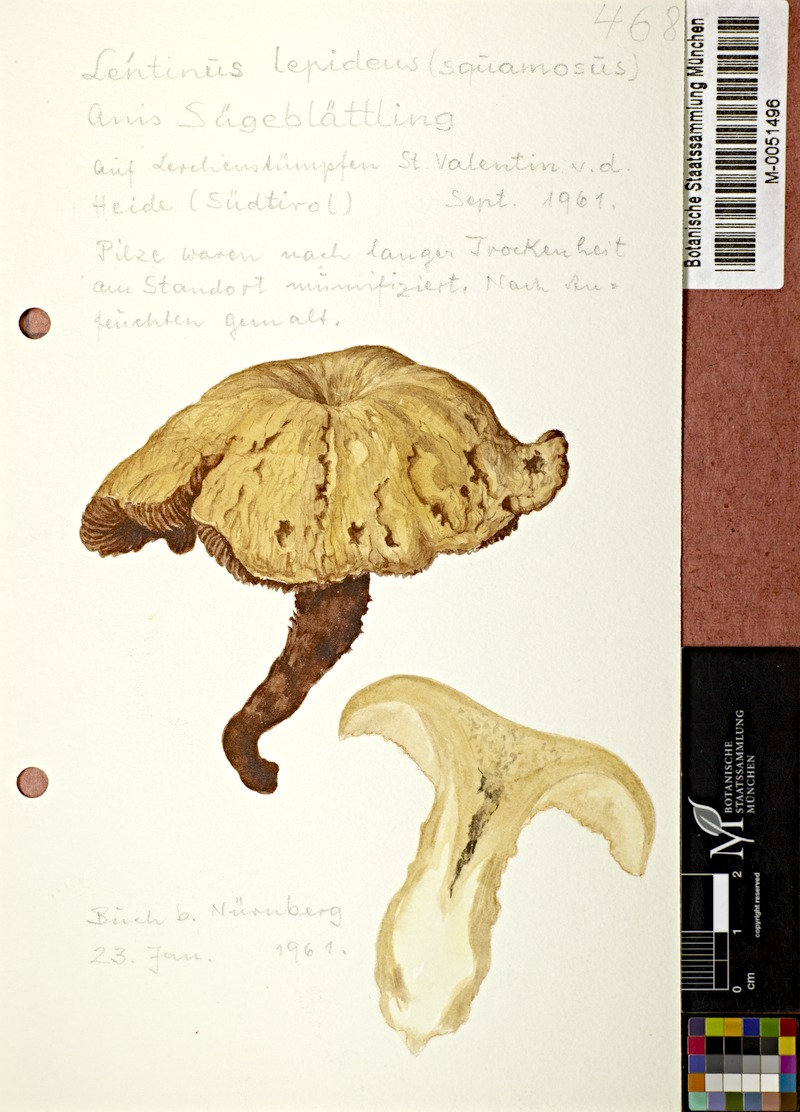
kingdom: Fungi
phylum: Basidiomycota
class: Agaricomycetes
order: Gloeophyllales
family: Gloeophyllaceae
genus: Neolentinus
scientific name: Neolentinus lepideus
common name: Scaly sawgill
